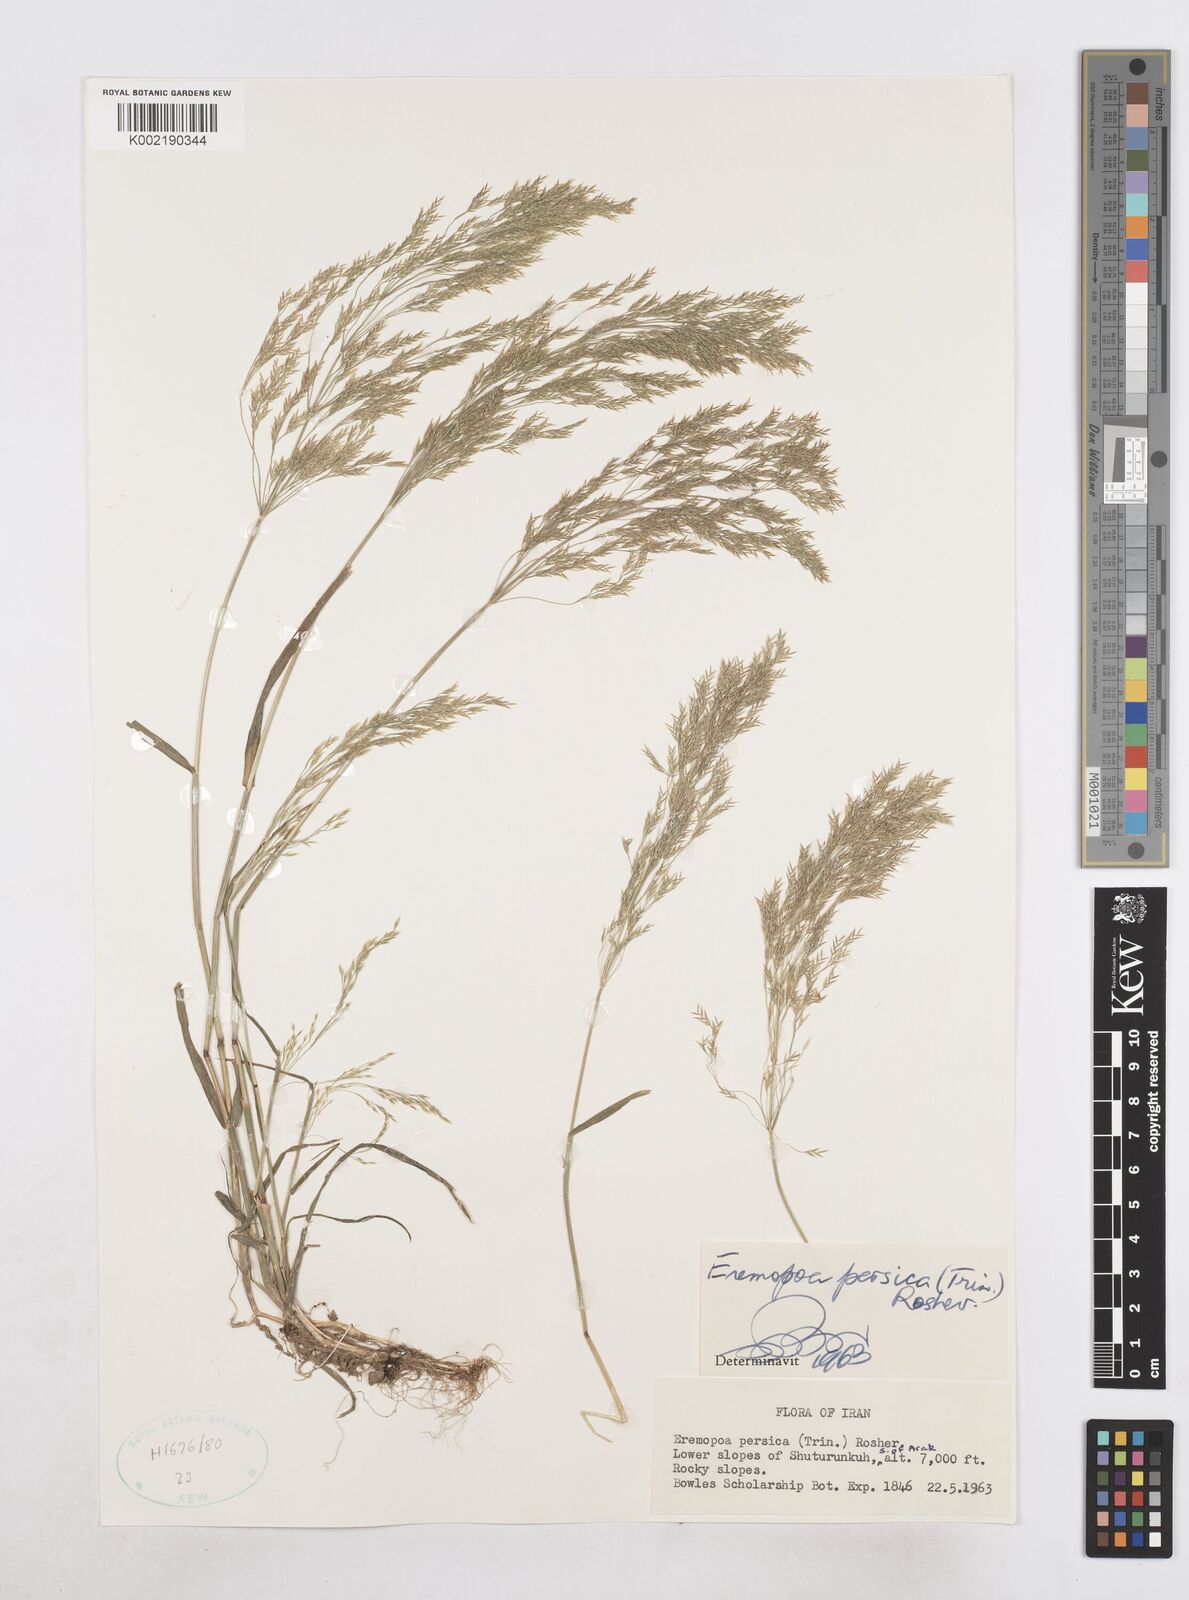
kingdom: Plantae
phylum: Tracheophyta
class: Liliopsida
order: Poales
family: Poaceae
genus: Poa
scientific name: Poa persica
